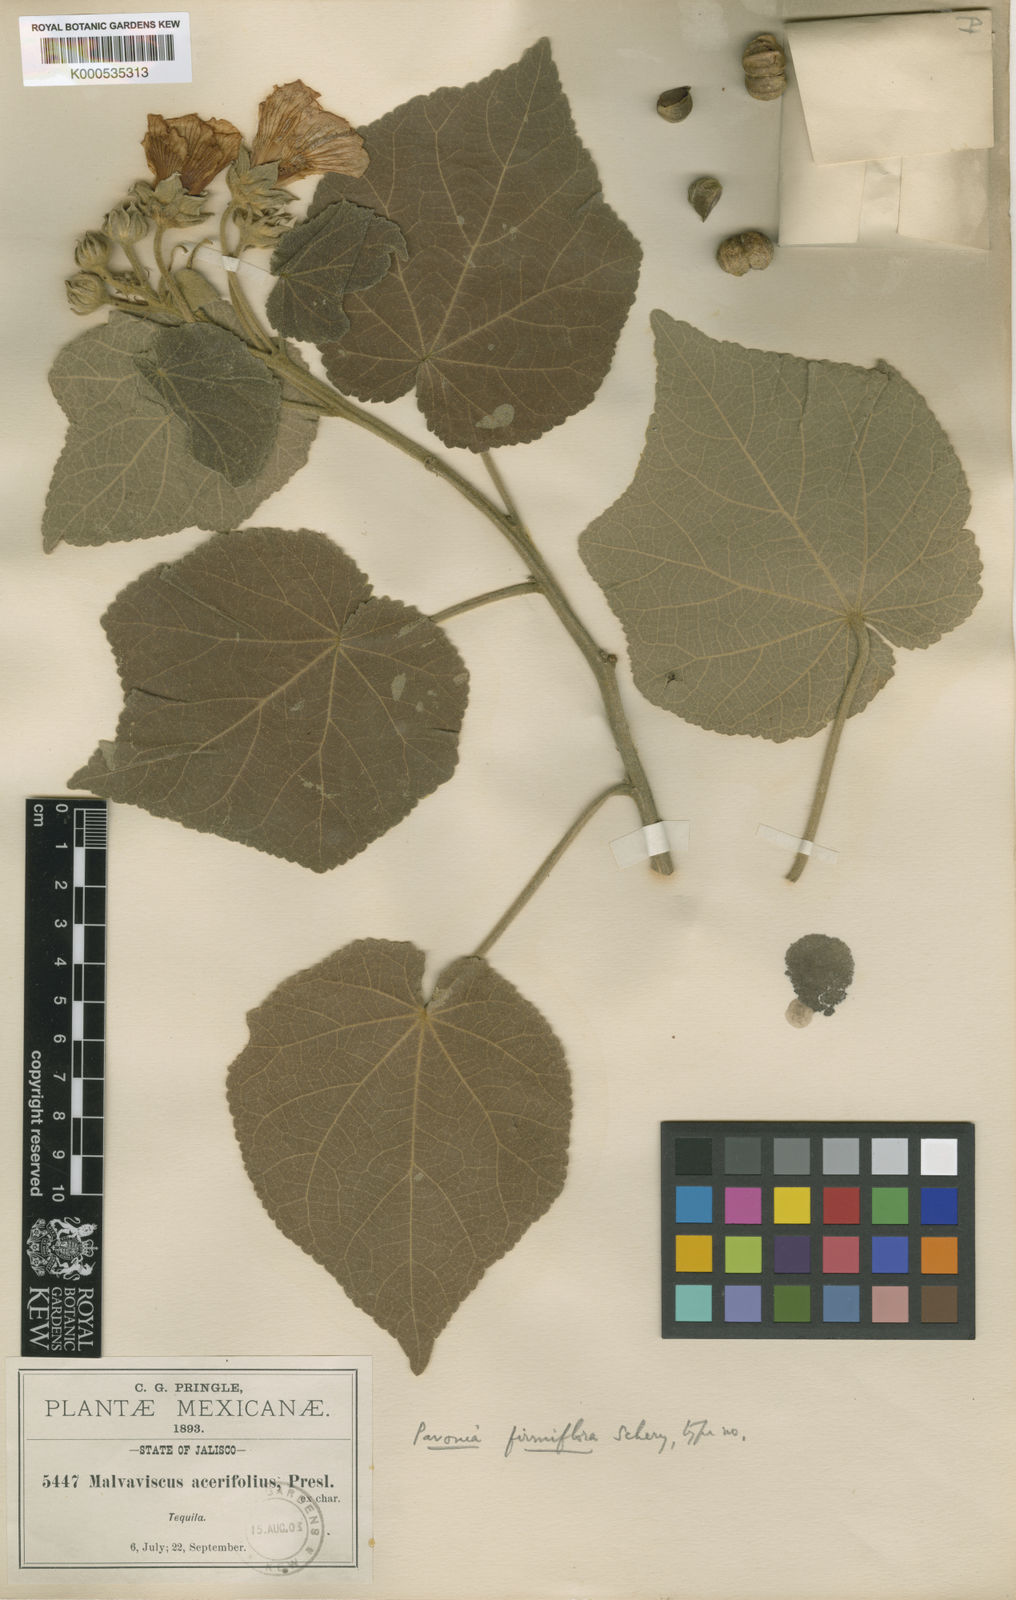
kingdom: Plantae
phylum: Tracheophyta
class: Magnoliopsida
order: Malvales
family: Malvaceae
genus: Pavonia
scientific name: Pavonia firmiflora
